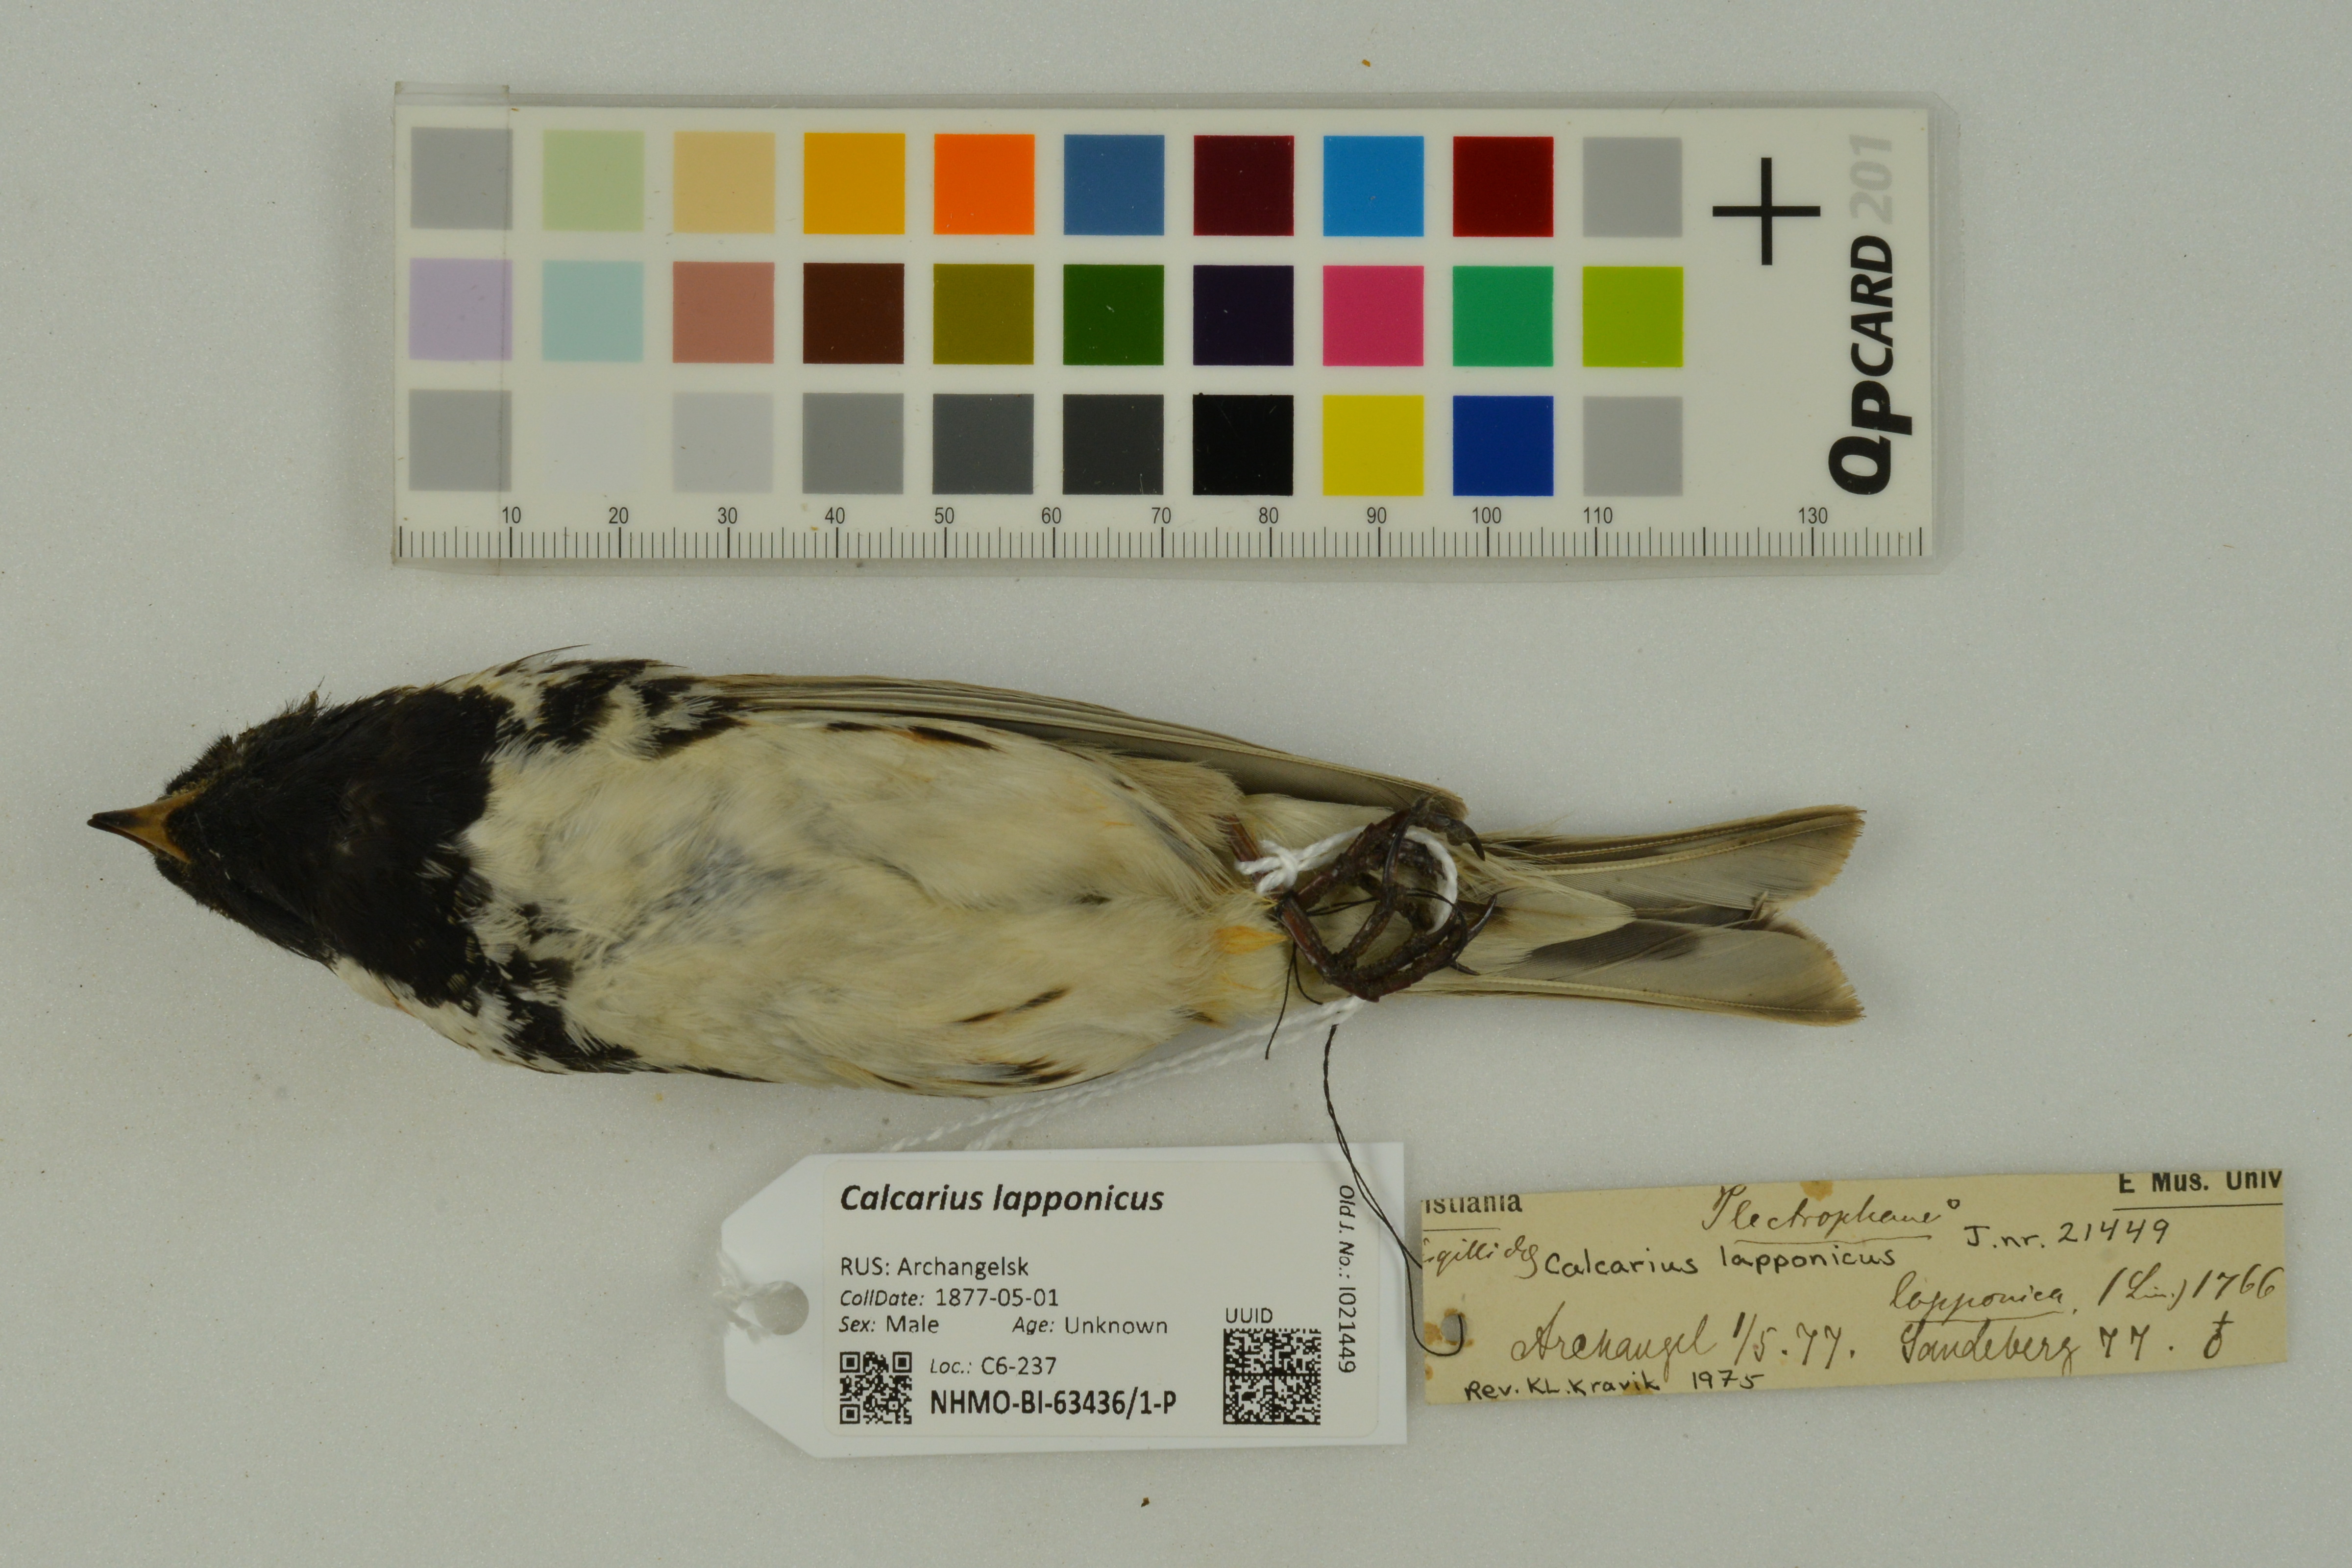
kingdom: Animalia
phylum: Chordata
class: Aves
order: Passeriformes
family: Calcariidae
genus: Calcarius
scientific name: Calcarius lapponicus
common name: Lapland longspur
